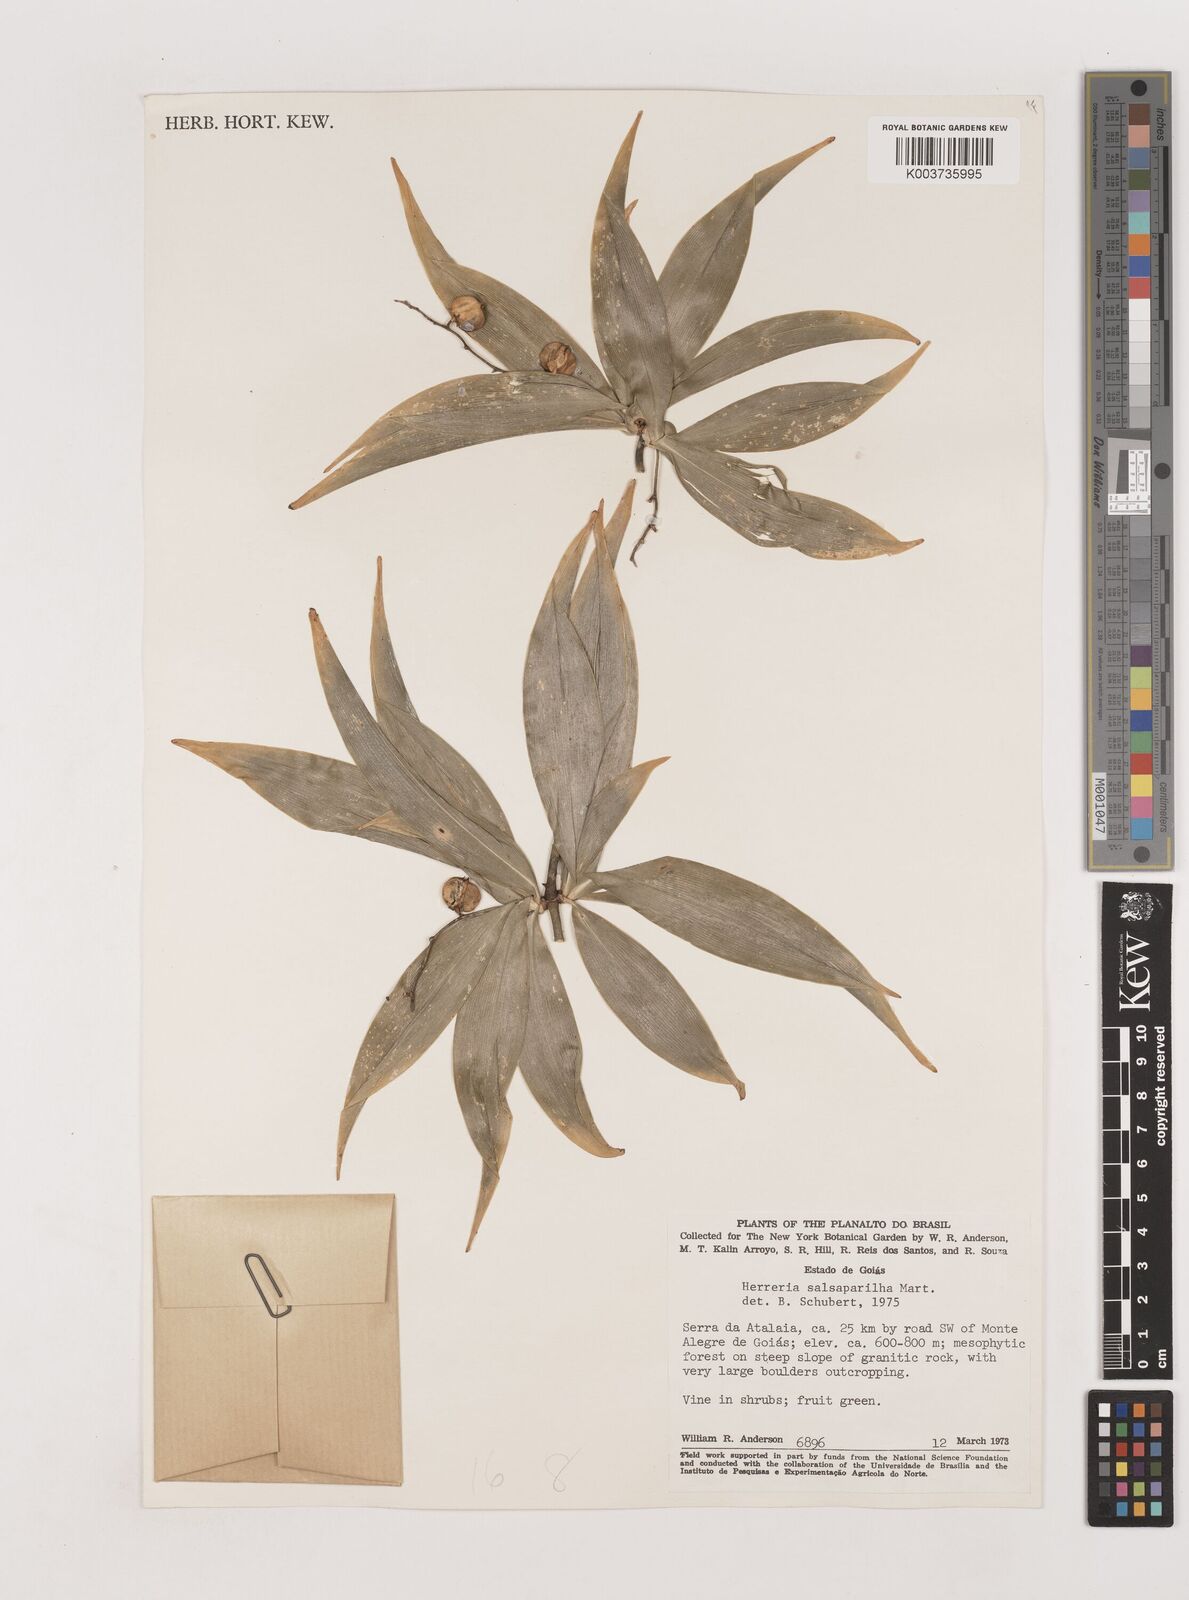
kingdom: Plantae
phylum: Tracheophyta
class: Liliopsida
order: Asparagales
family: Asparagaceae
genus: Herreria
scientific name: Herreria salsaparilha
